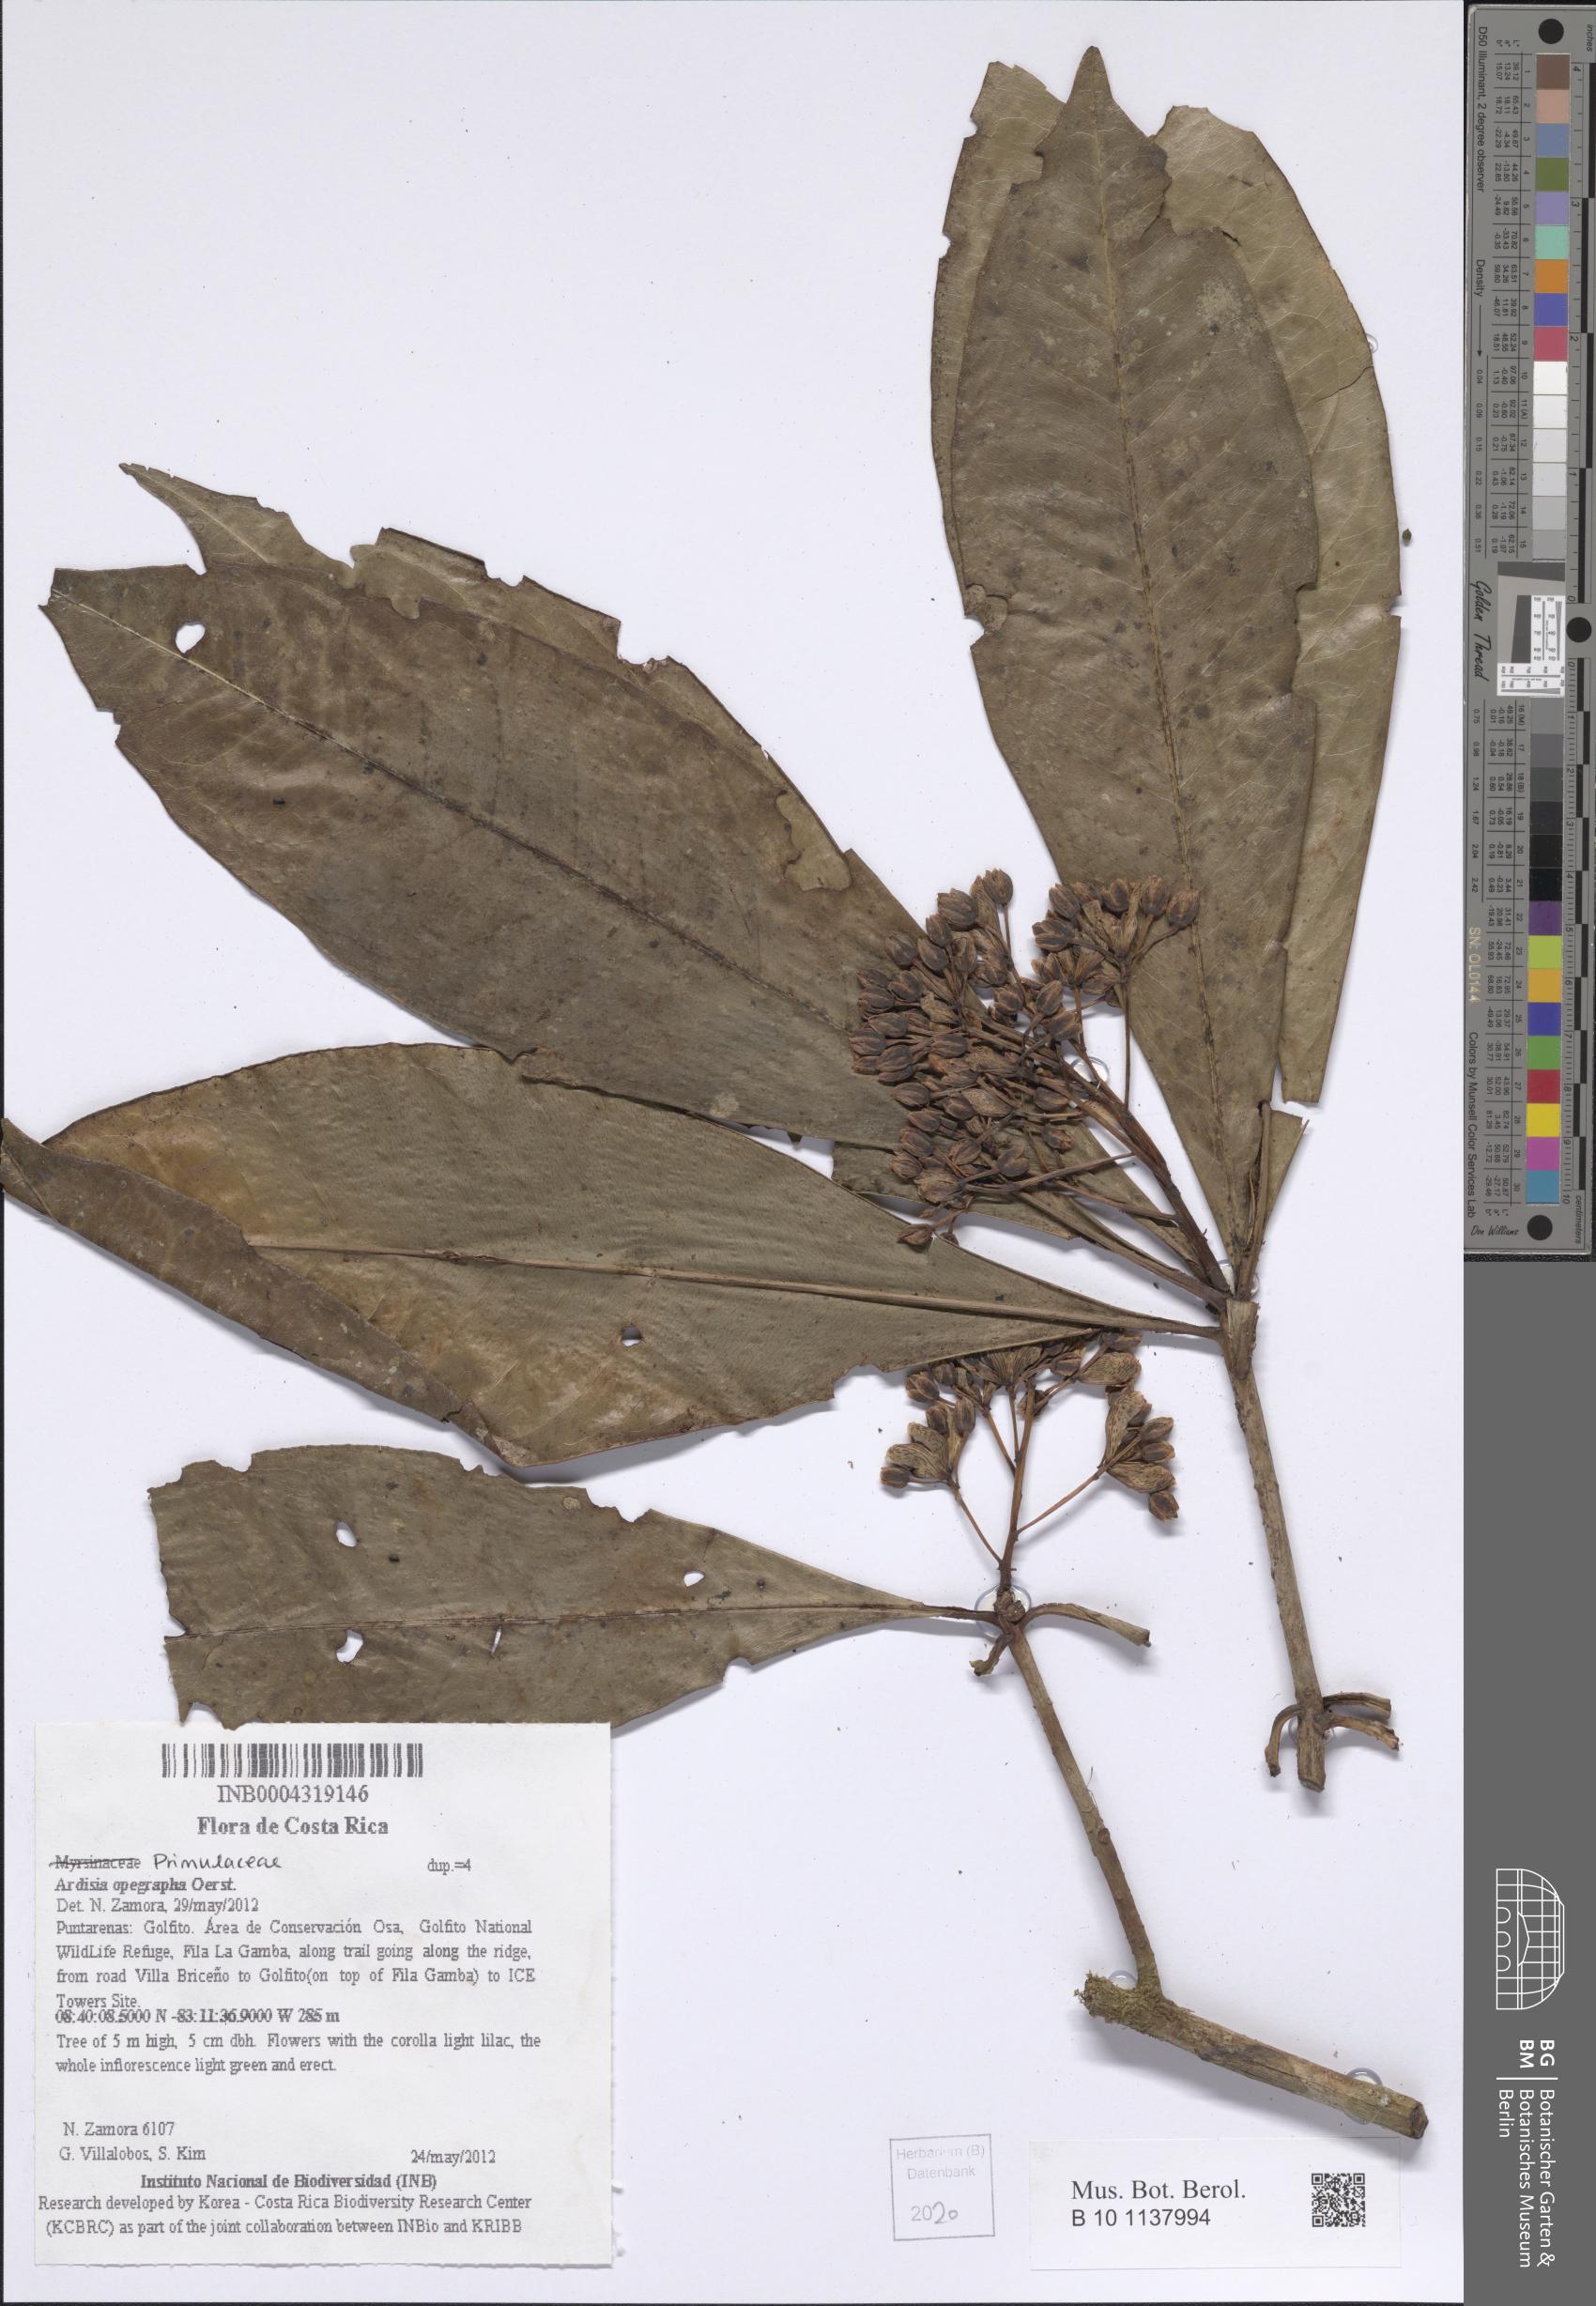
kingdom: Plantae
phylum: Tracheophyta
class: Magnoliopsida
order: Ericales
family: Primulaceae
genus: Ardisia
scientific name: Ardisia opegrapha
